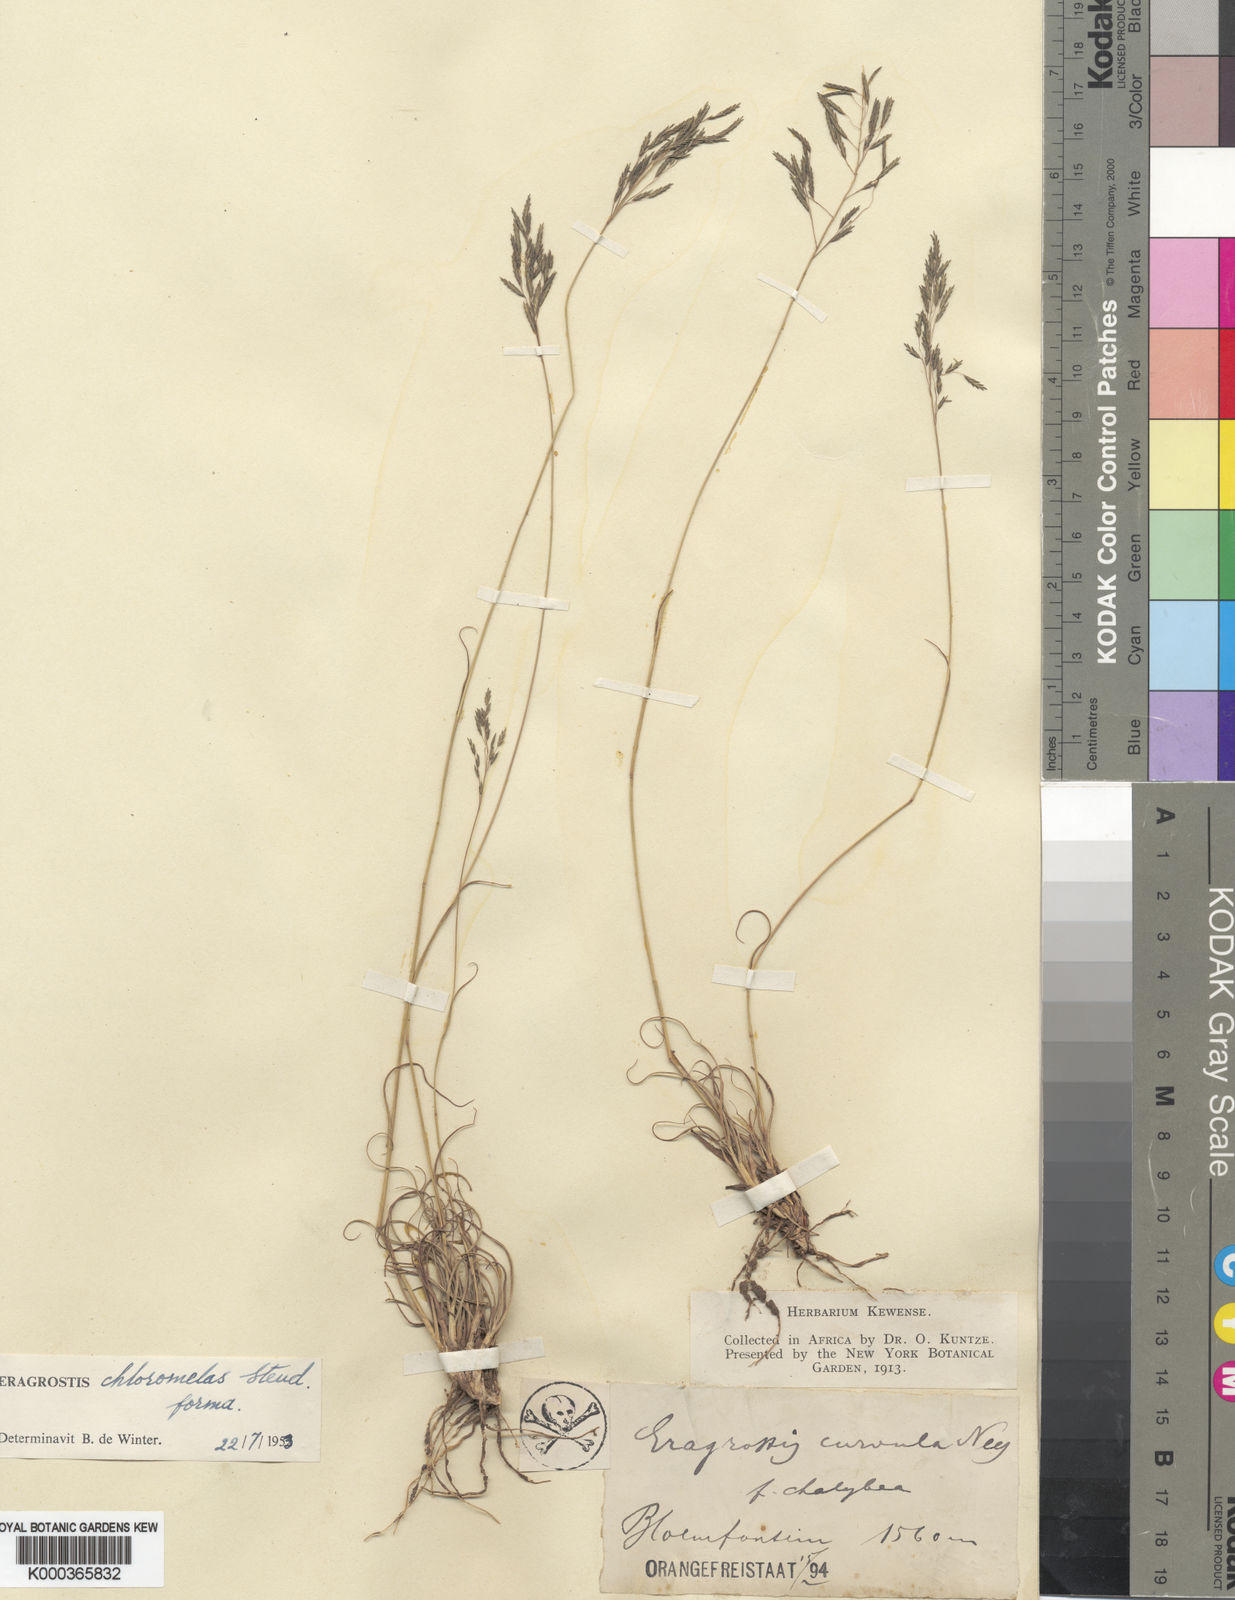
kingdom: Plantae
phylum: Tracheophyta
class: Liliopsida
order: Poales
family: Poaceae
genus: Eragrostis
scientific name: Eragrostis curvula
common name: African love-grass
